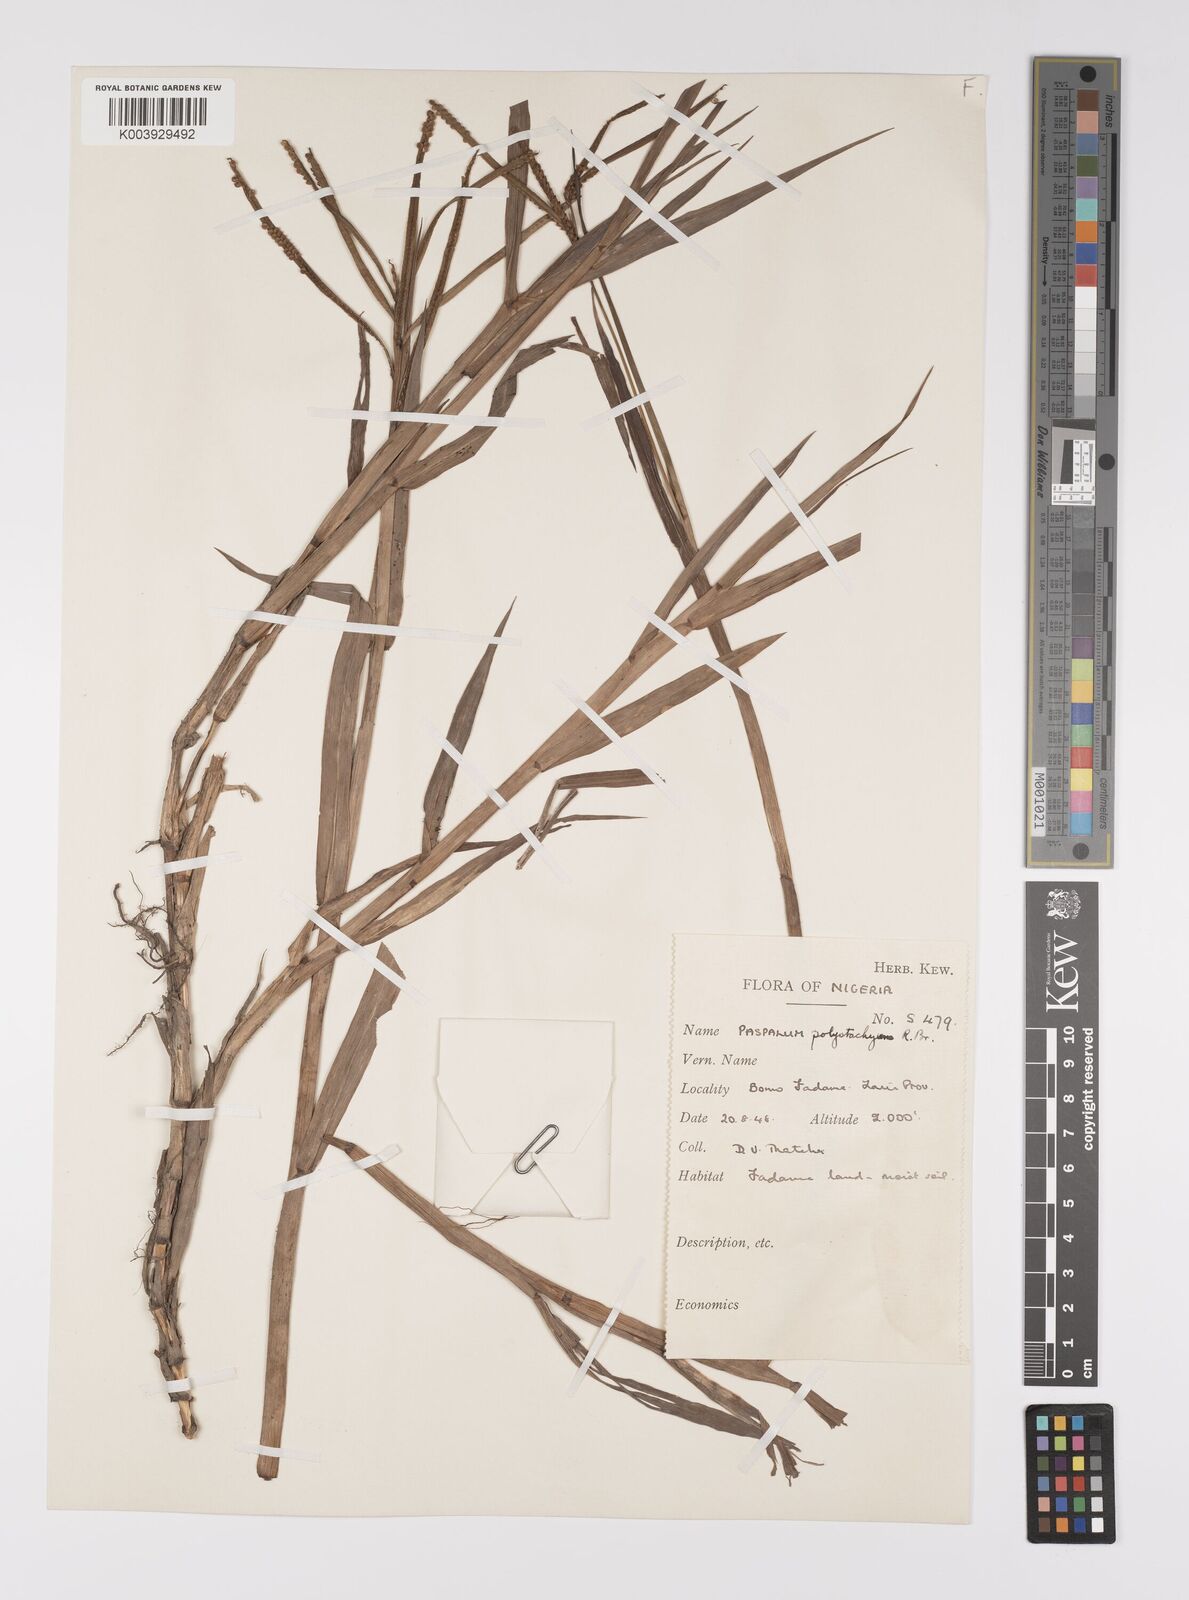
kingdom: Plantae
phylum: Tracheophyta
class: Liliopsida
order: Poales
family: Poaceae
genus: Paspalum
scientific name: Paspalum scrobiculatum
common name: Kodo millet
